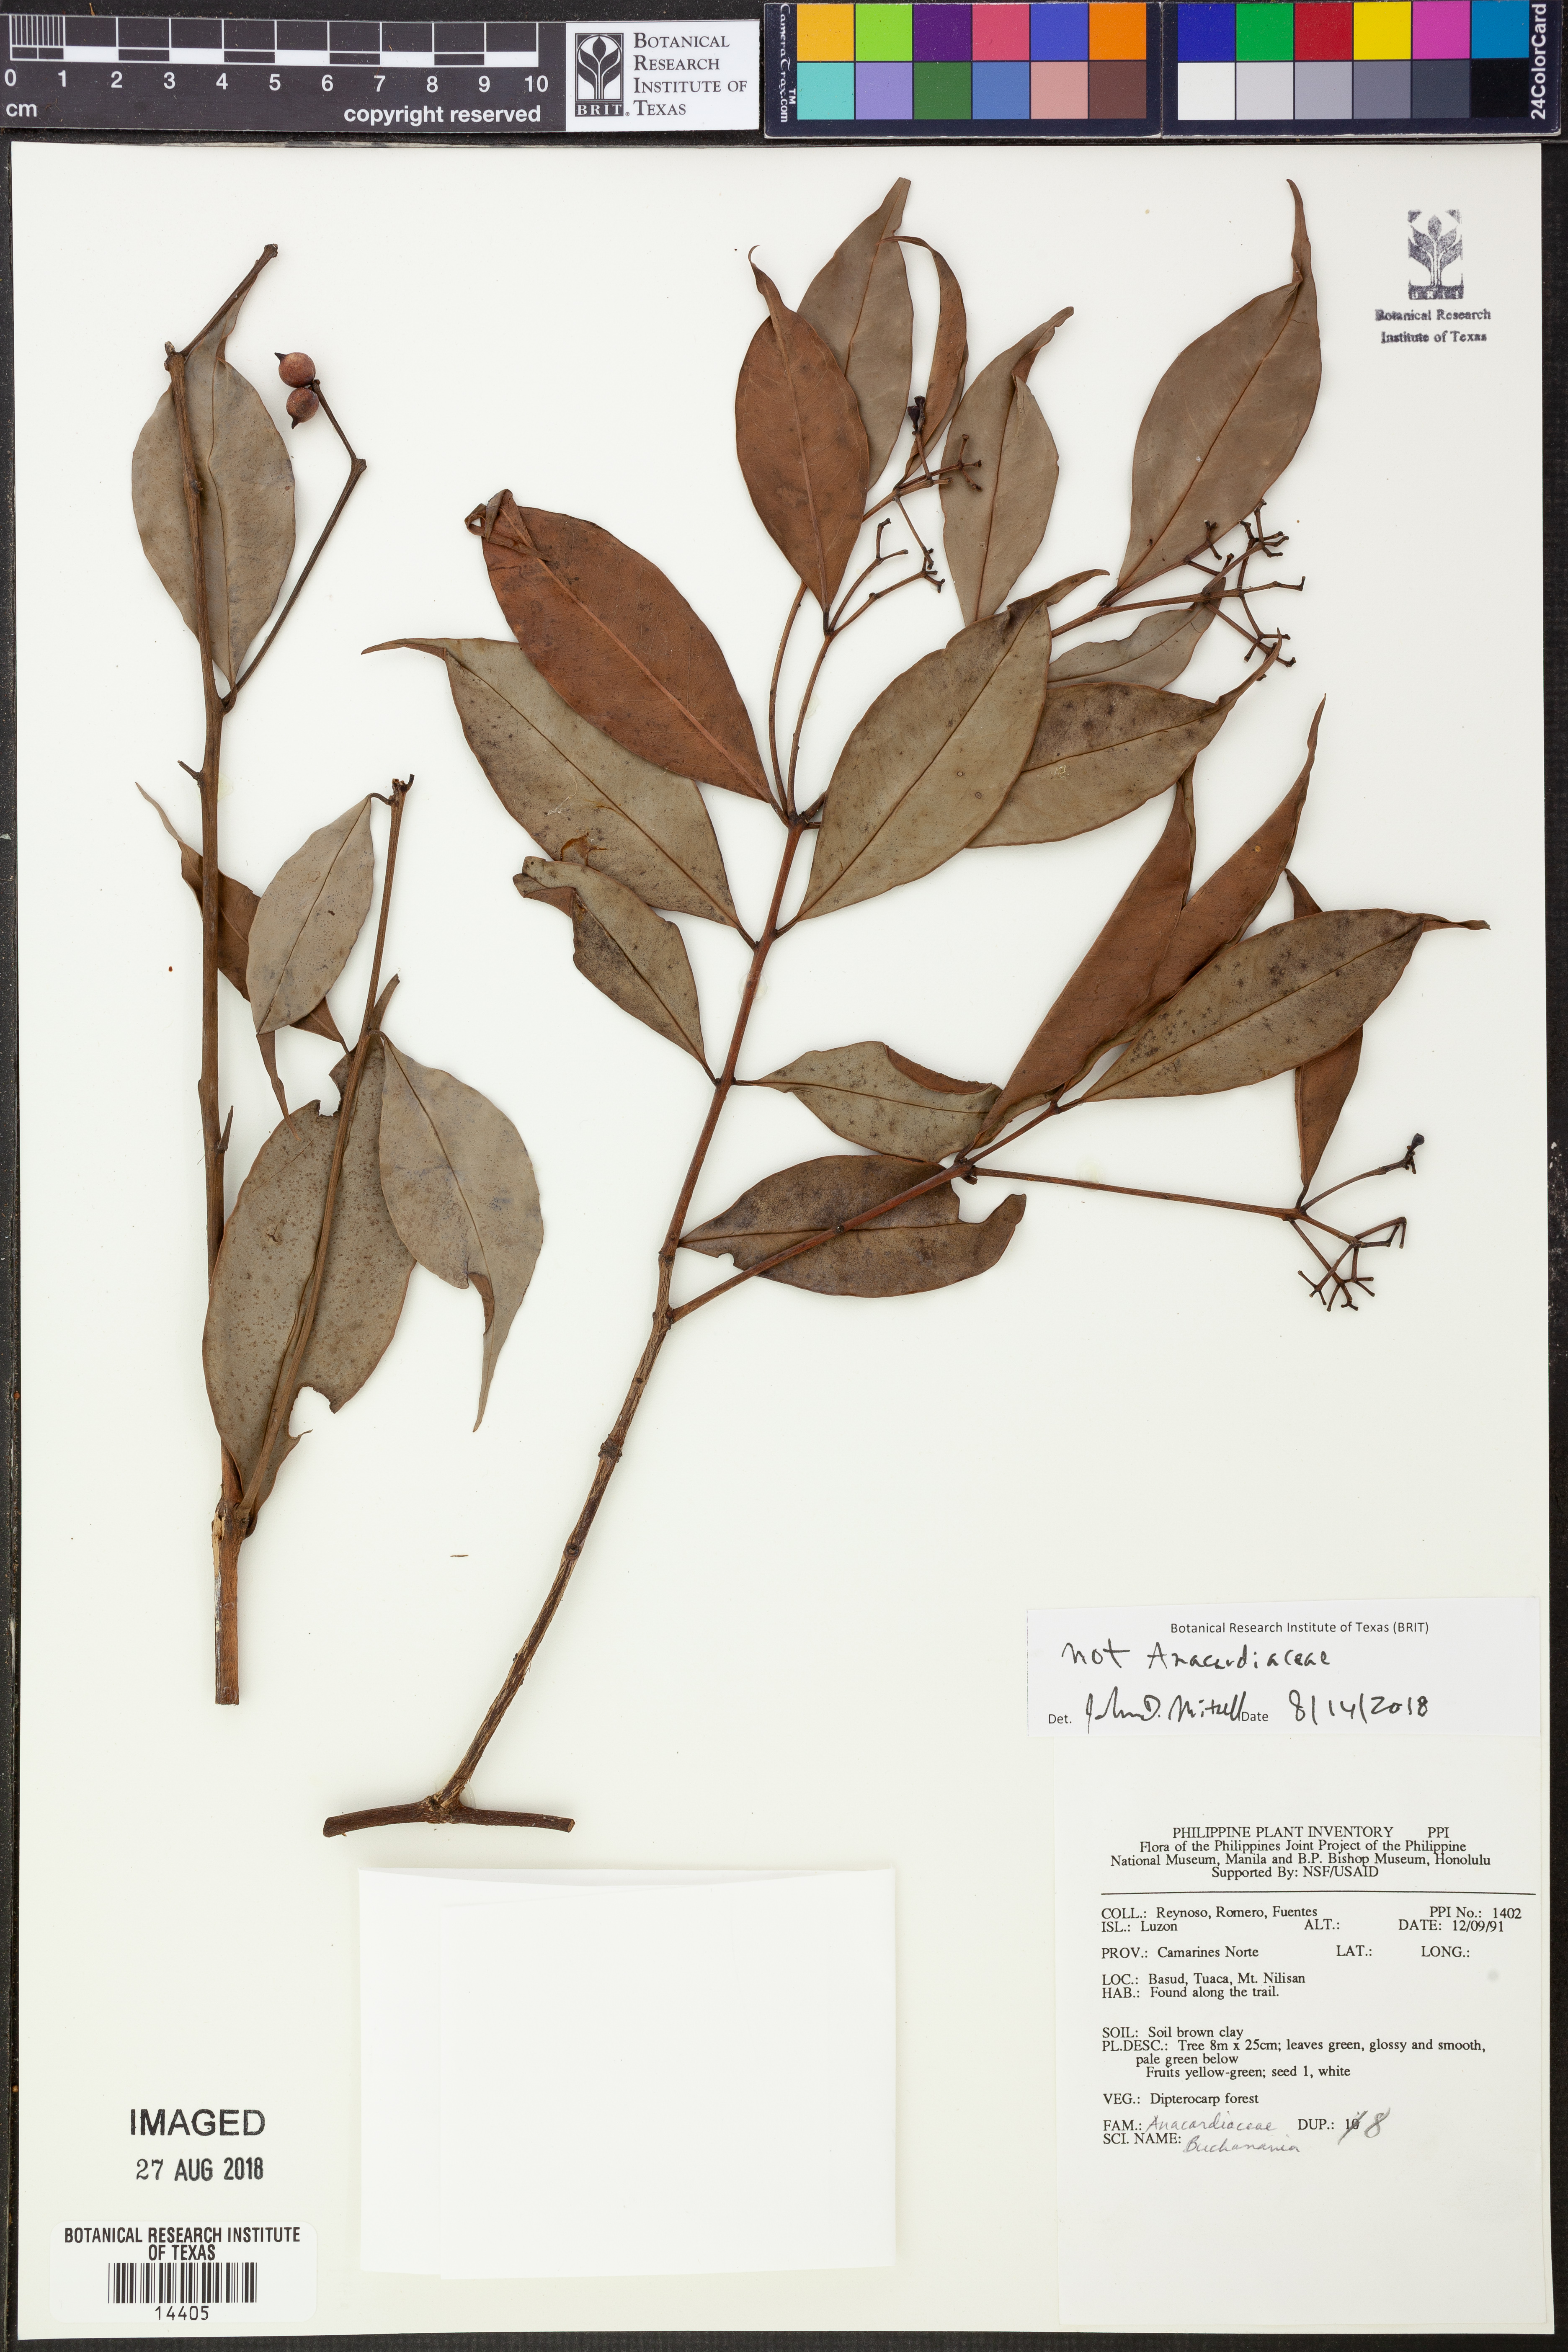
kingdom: Plantae
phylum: Tracheophyta
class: Magnoliopsida
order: Myrtales
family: Myrtaceae
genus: Syzygium
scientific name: Syzygium
